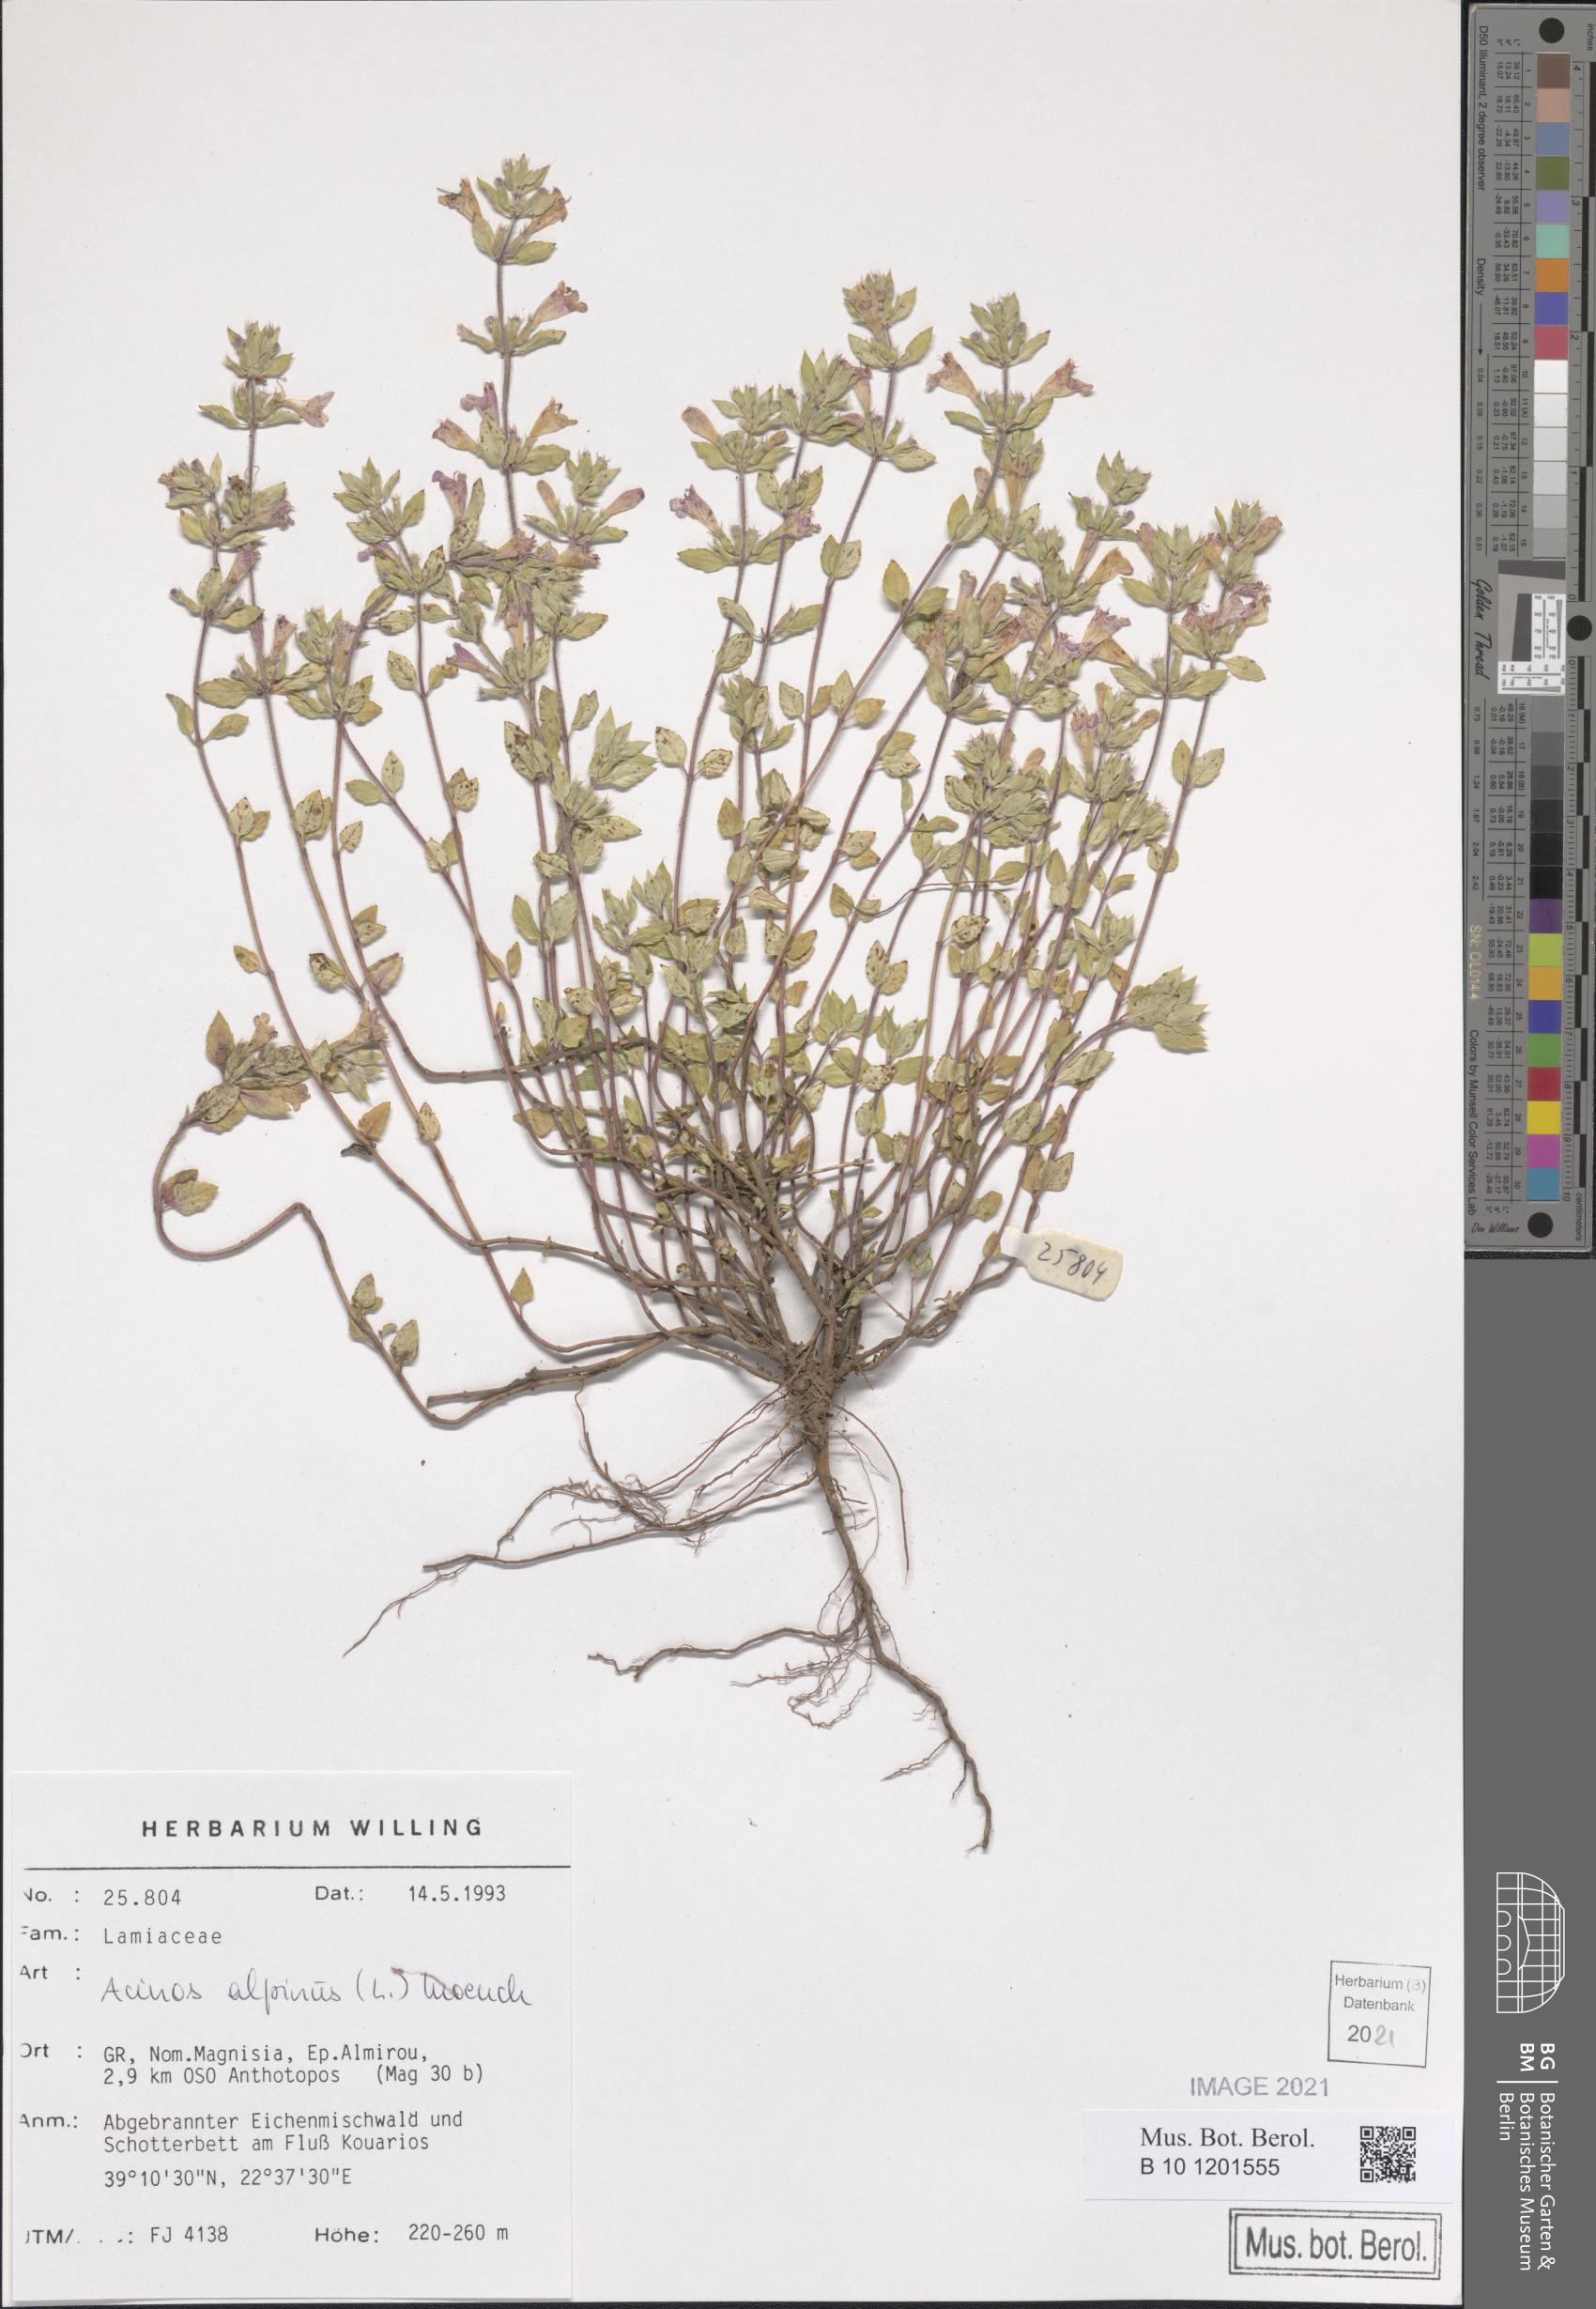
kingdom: Plantae
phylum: Tracheophyta
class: Magnoliopsida
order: Lamiales
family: Lamiaceae
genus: Clinopodium
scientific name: Clinopodium alpinum
